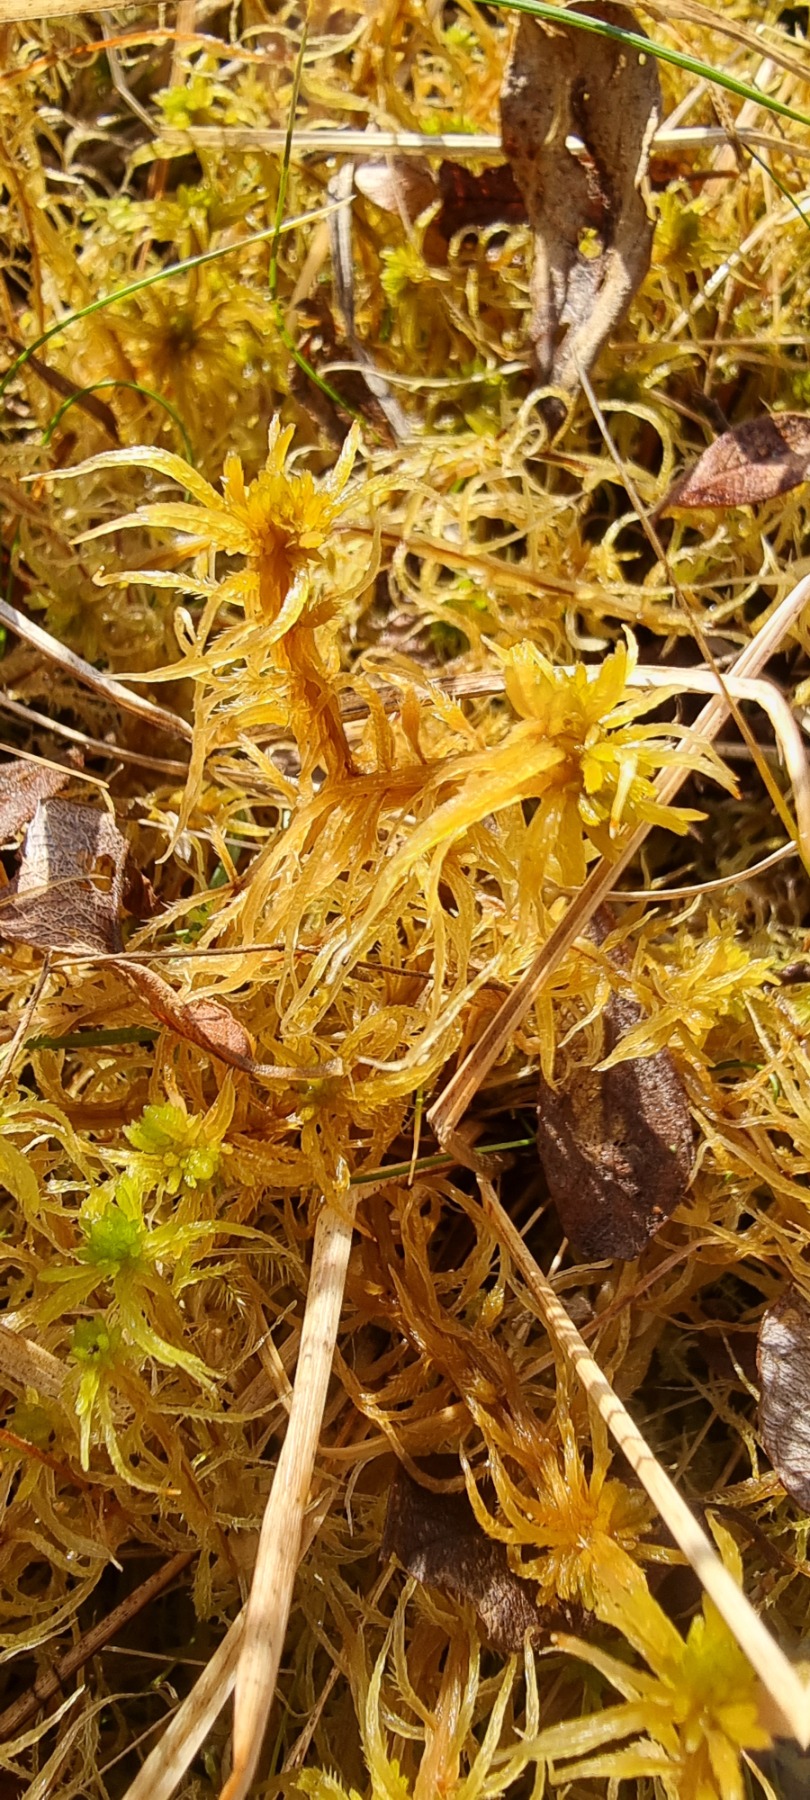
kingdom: Plantae
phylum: Bryophyta
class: Sphagnopsida
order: Sphagnales
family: Sphagnaceae
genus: Sphagnum
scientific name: Sphagnum teres
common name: Trindgrenet tørvemos
